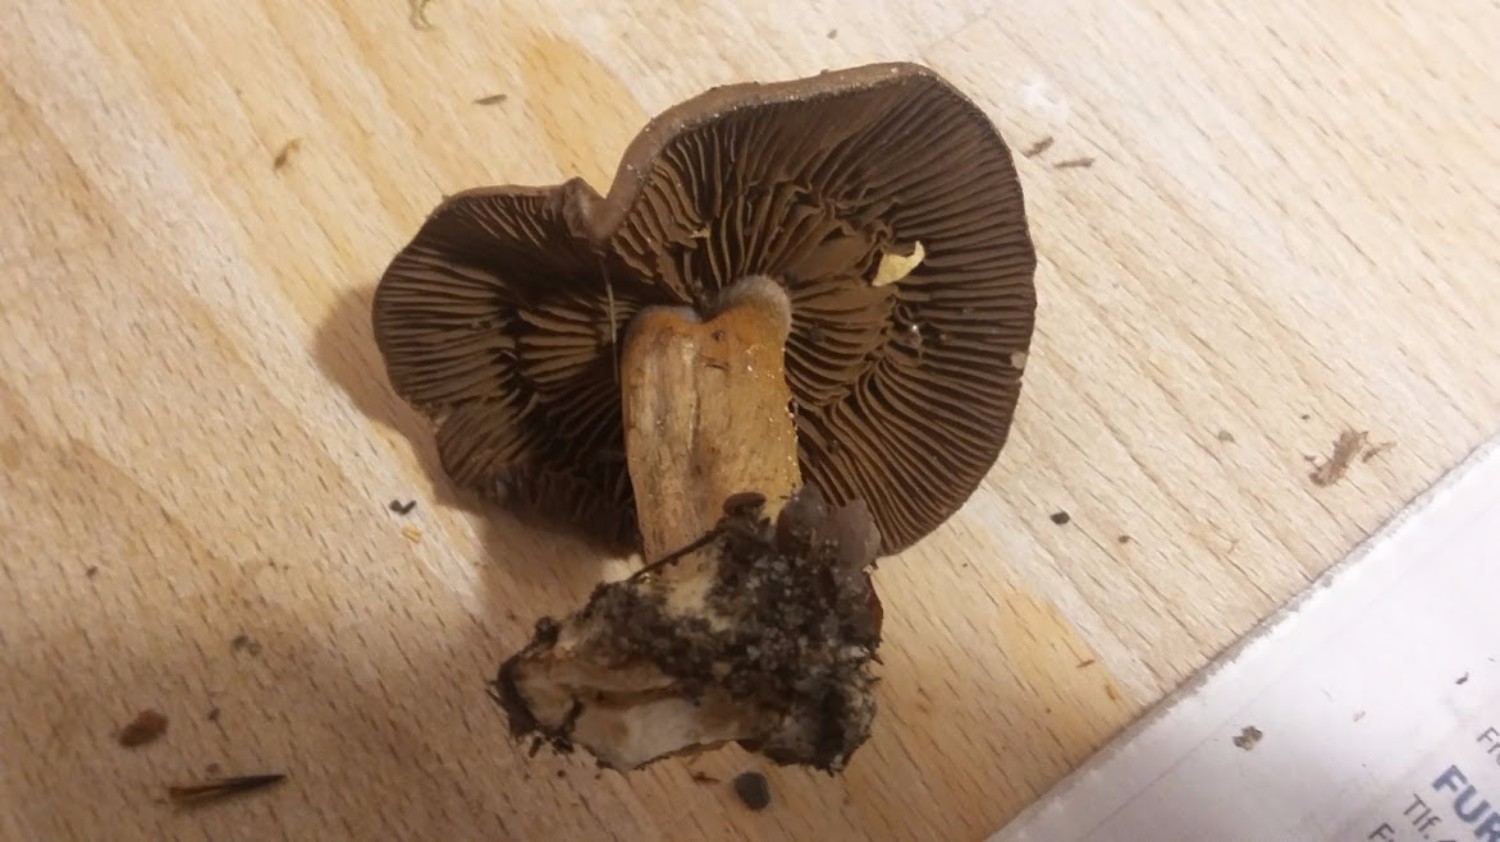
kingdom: Fungi
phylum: Basidiomycota
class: Agaricomycetes
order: Agaricales
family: Cortinariaceae
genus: Cortinarius
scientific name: Cortinarius
